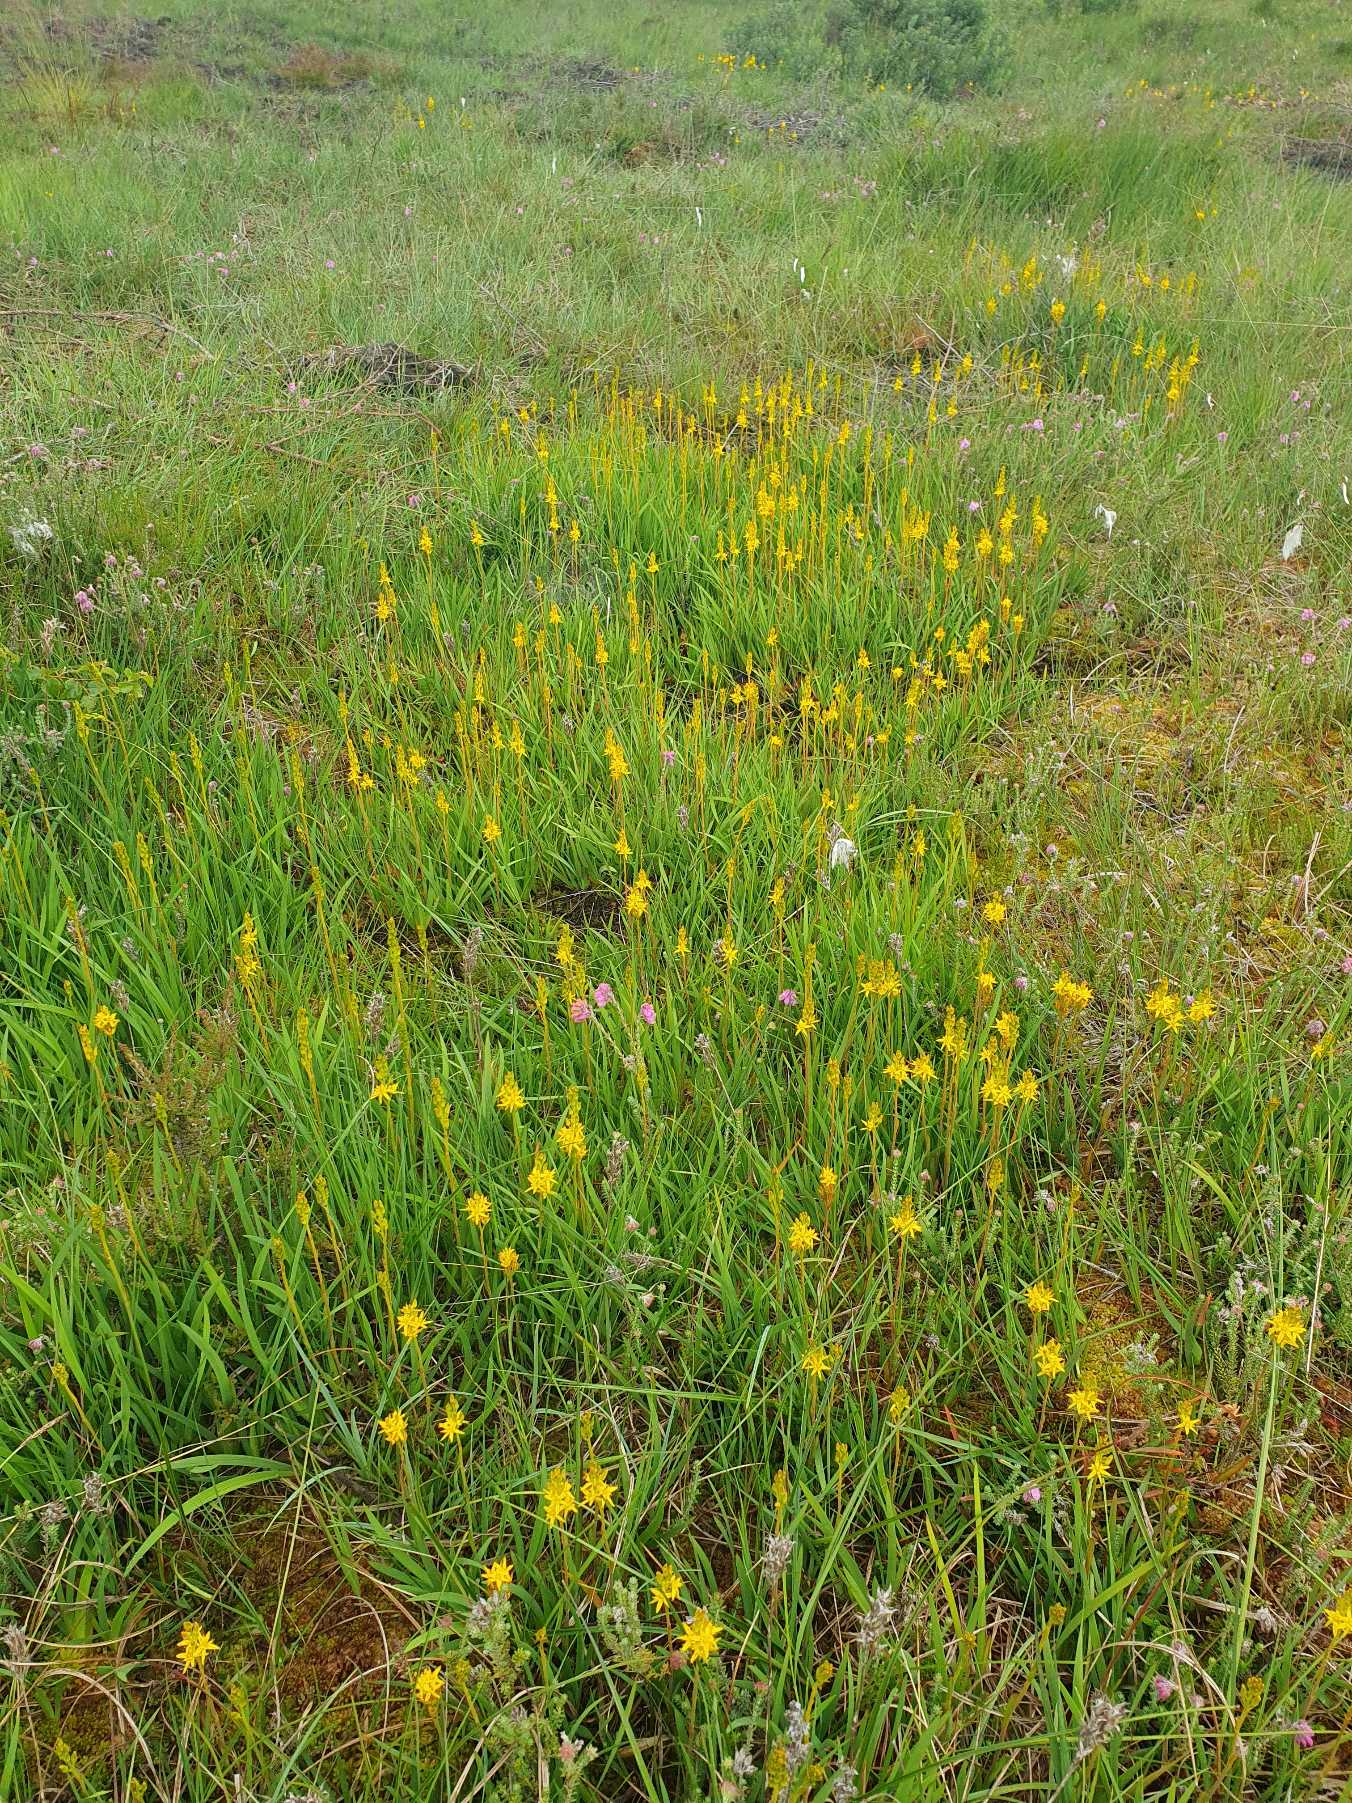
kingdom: Plantae
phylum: Tracheophyta
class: Liliopsida
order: Dioscoreales
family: Nartheciaceae
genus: Narthecium
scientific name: Narthecium ossifragum
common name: Benbræk
